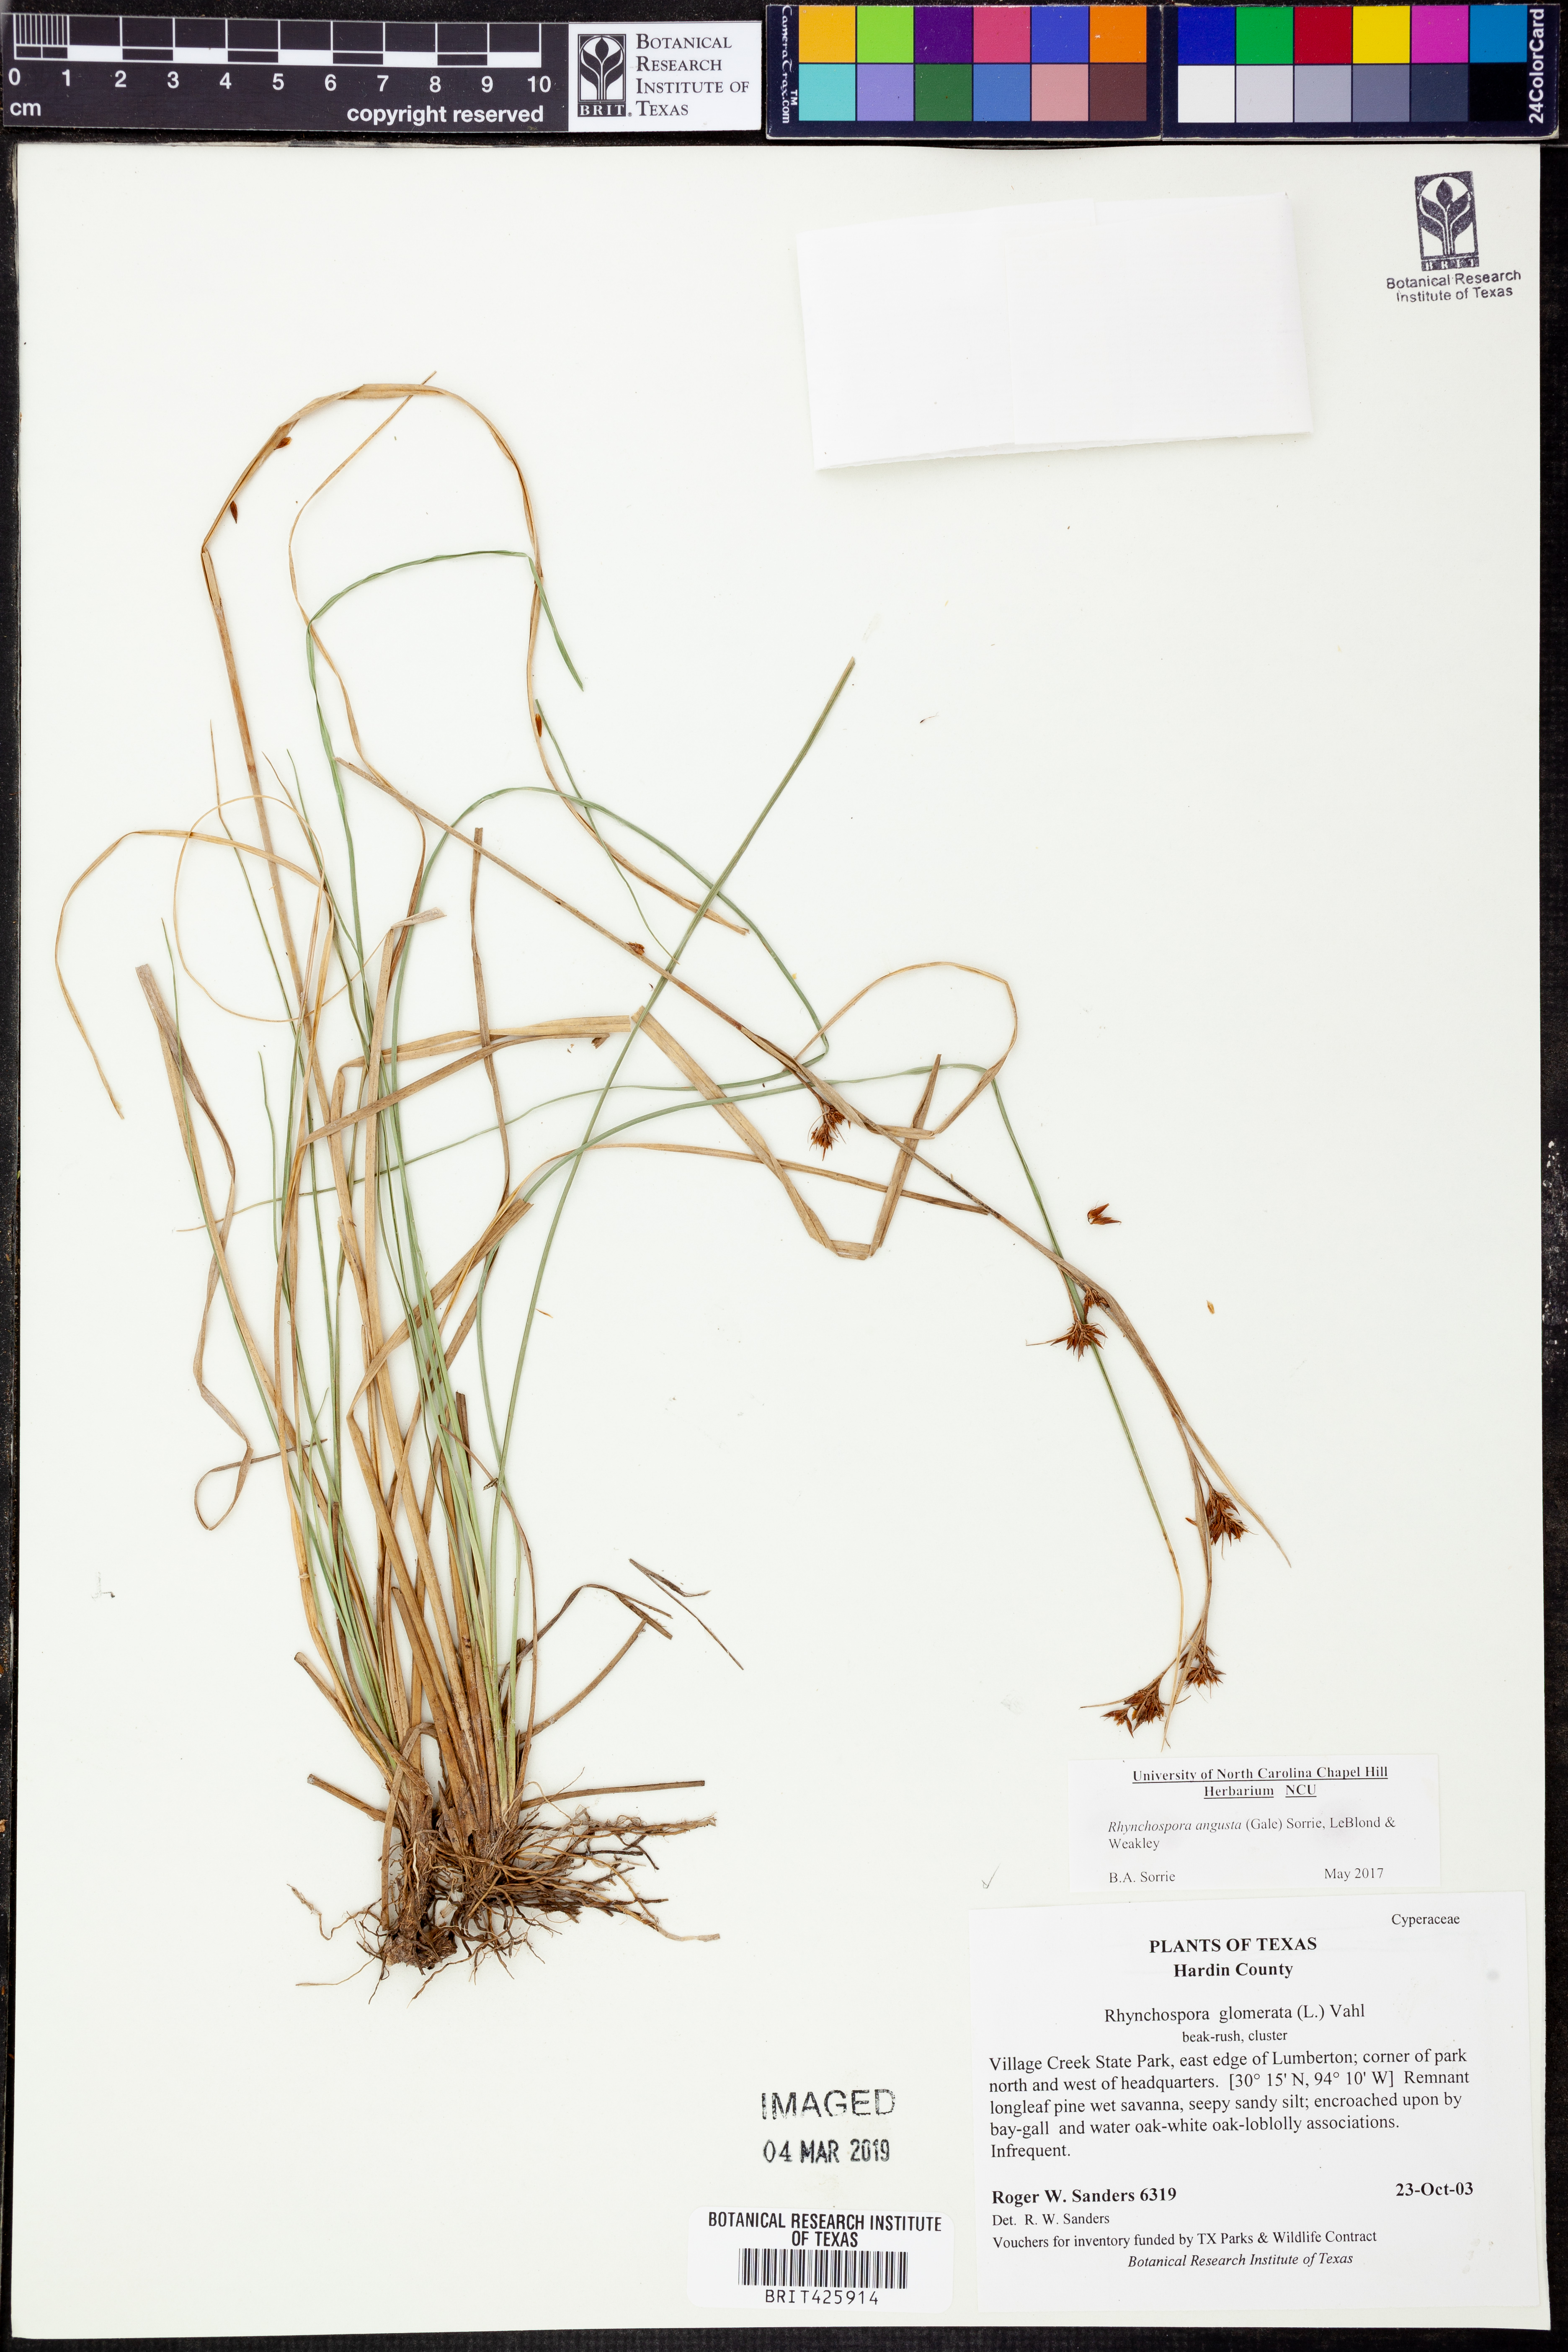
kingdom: Plantae
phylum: Tracheophyta
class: Liliopsida
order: Poales
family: Cyperaceae
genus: Rhynchospora
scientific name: Rhynchospora glomerata
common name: Cluster beak sedge
